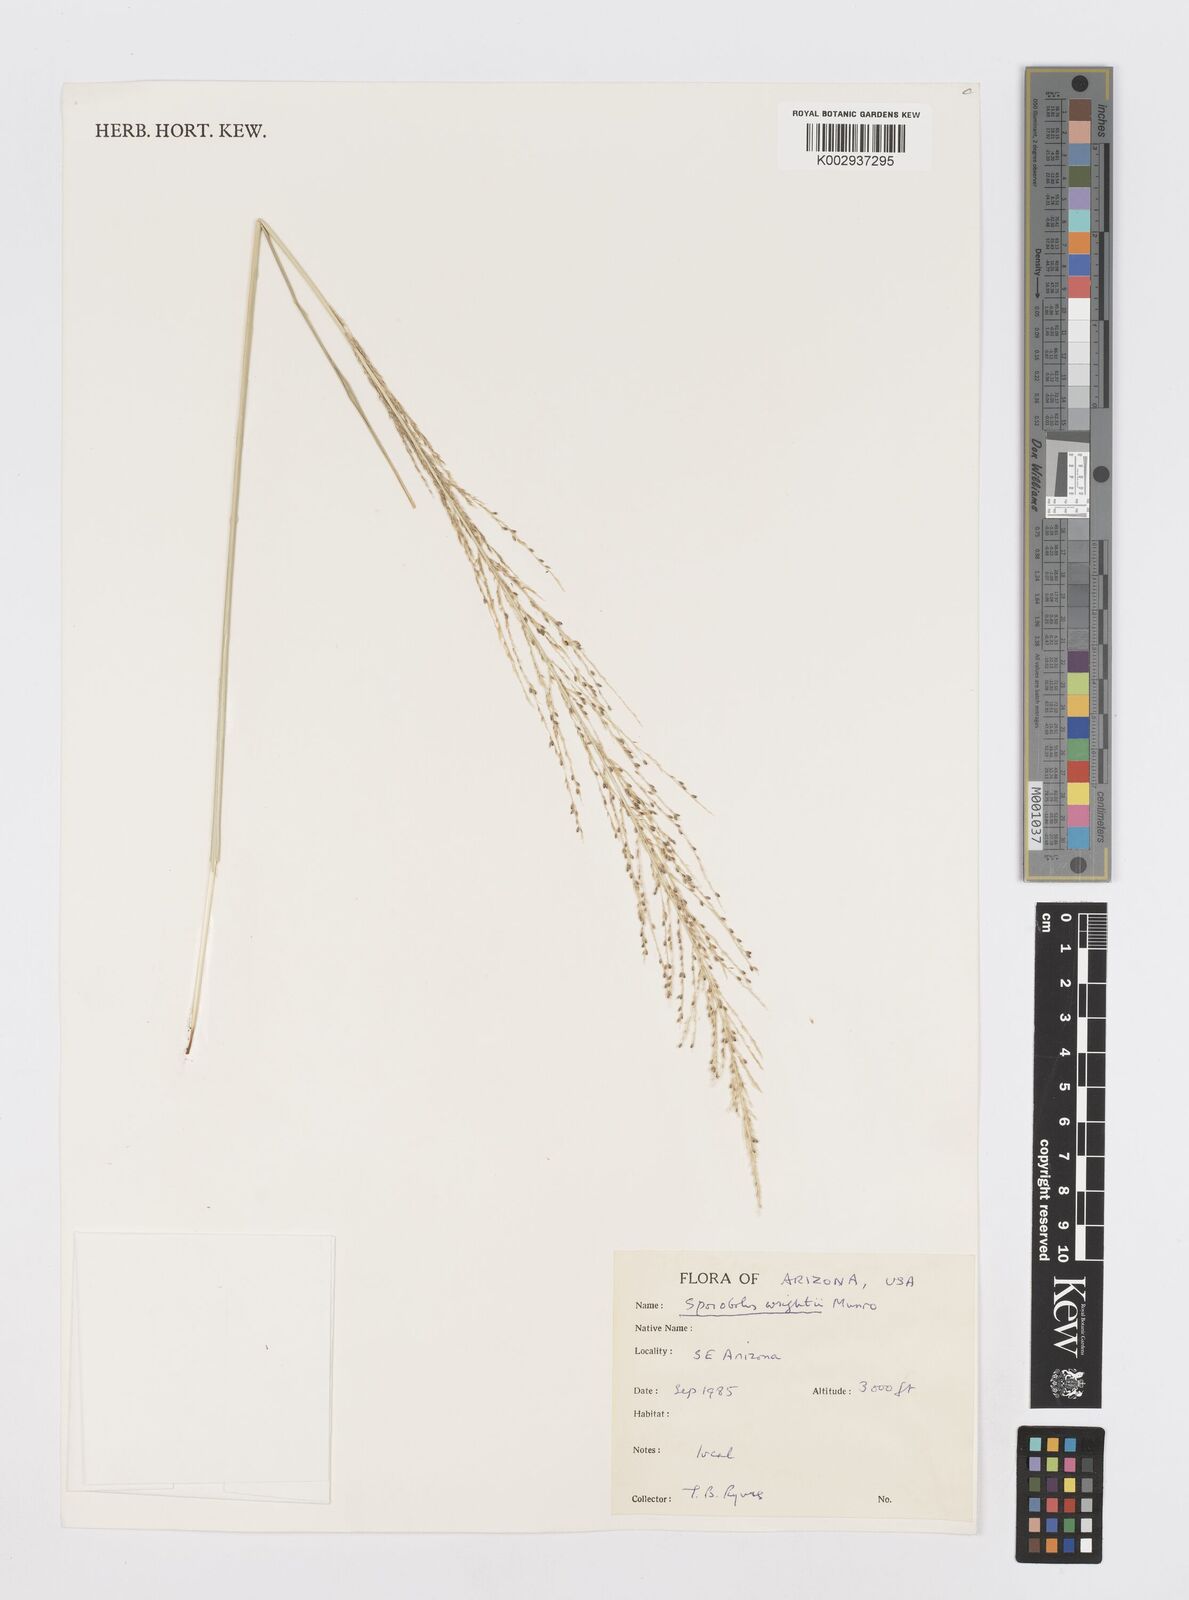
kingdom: Plantae
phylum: Tracheophyta
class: Liliopsida
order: Poales
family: Poaceae
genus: Sporobolus
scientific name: Sporobolus wrightii
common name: Big alkali sacaton
